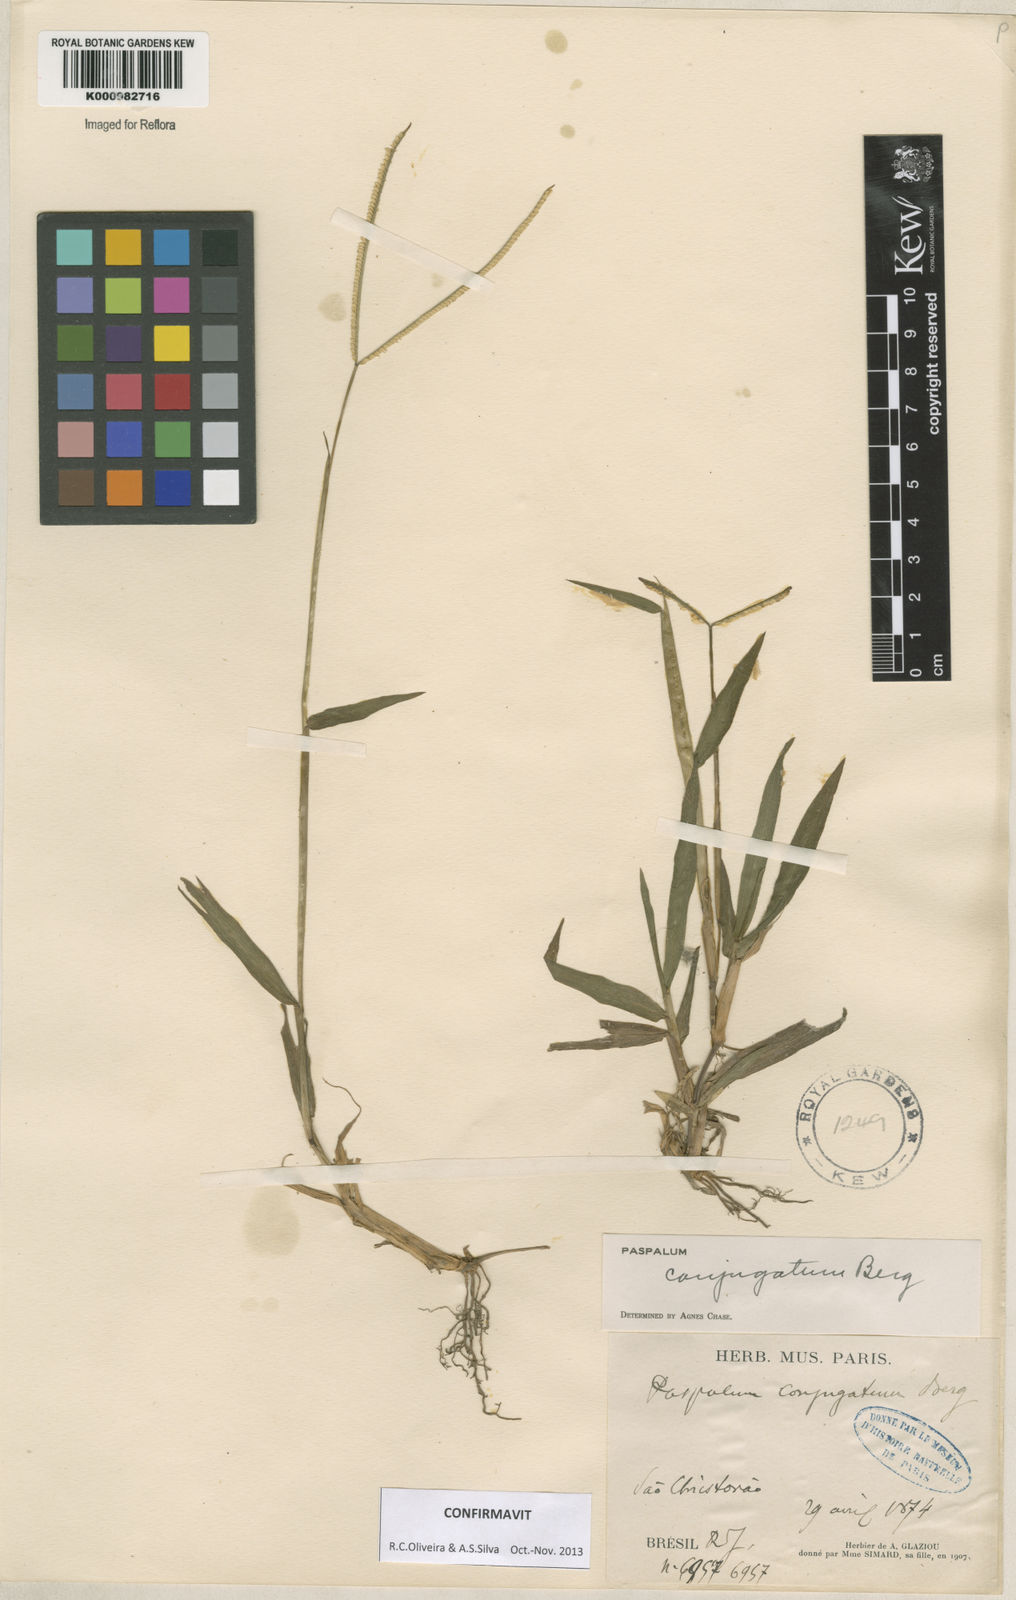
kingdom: Plantae
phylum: Tracheophyta
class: Liliopsida
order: Poales
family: Poaceae
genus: Paspalum
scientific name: Paspalum conjugatum
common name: Hilograss
